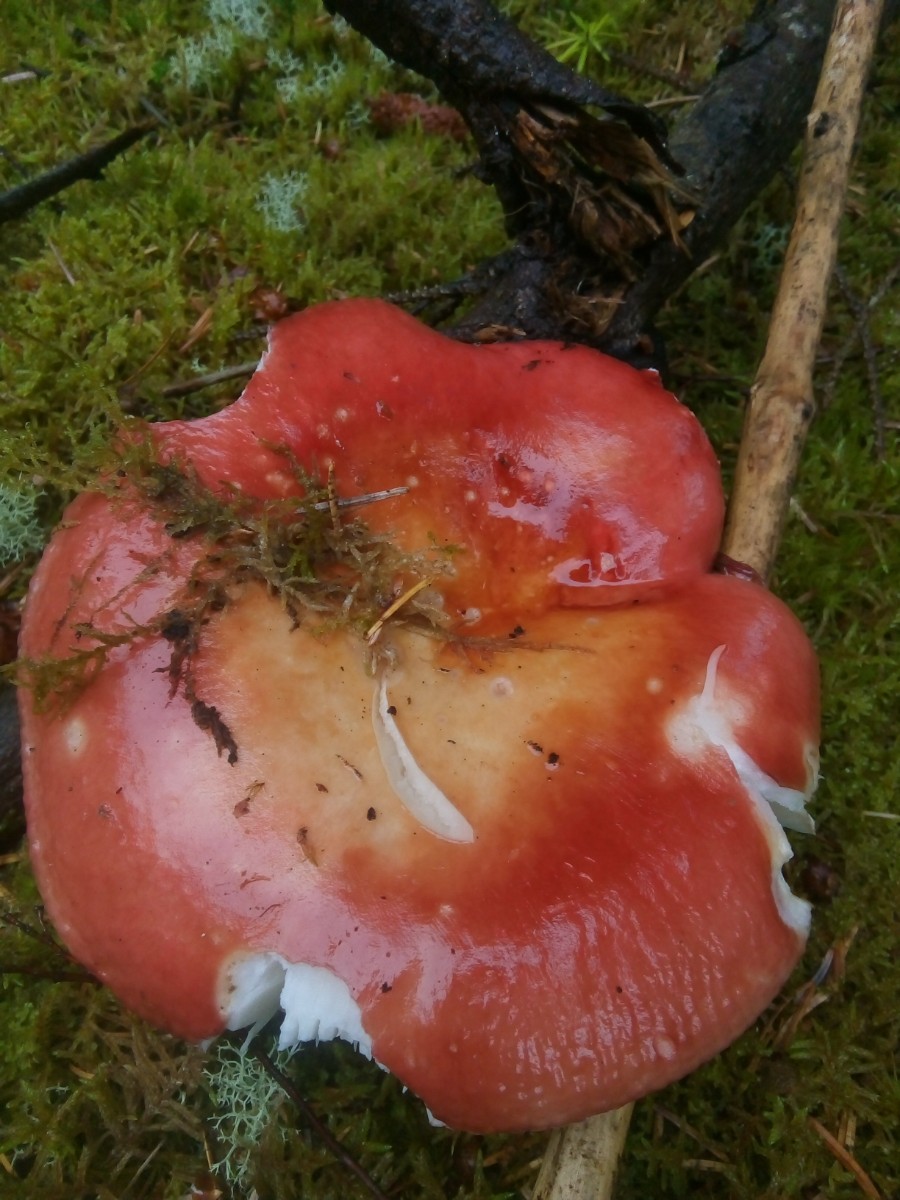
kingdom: Fungi
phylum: Basidiomycota
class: Agaricomycetes
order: Russulales
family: Russulaceae
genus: Russula
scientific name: Russula paludosa
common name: prægtig skørhat
